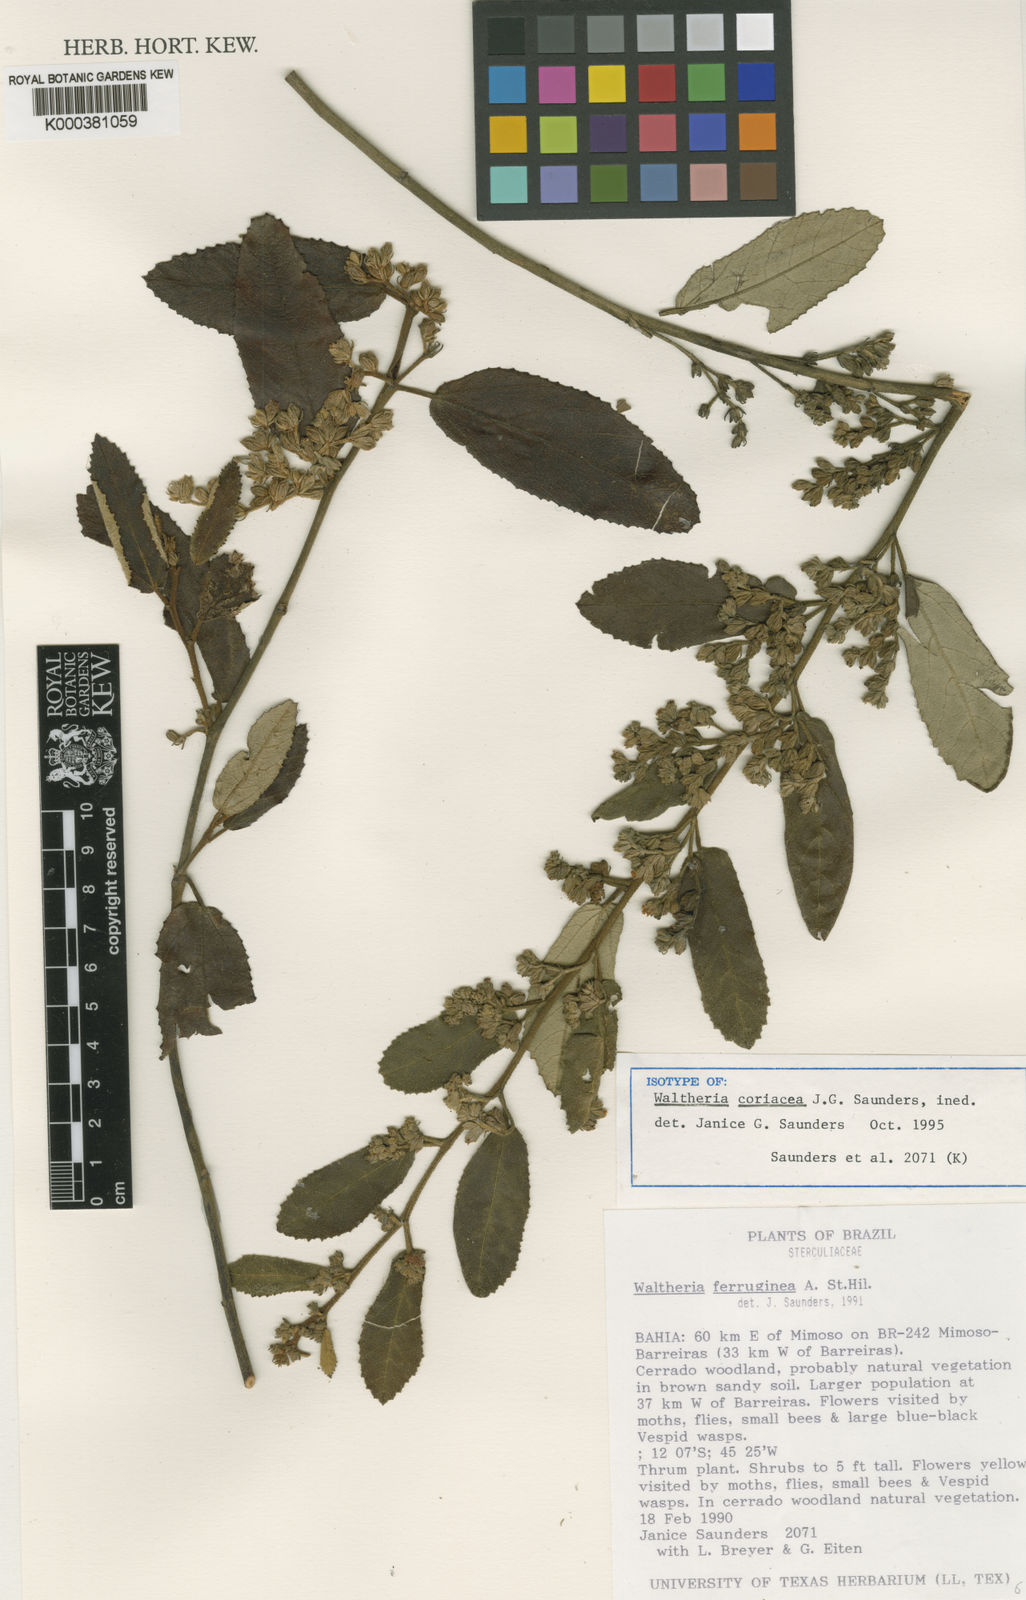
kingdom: Plantae
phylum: Tracheophyta
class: Magnoliopsida
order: Malvales
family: Malvaceae
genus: Waltheria
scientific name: Waltheria
